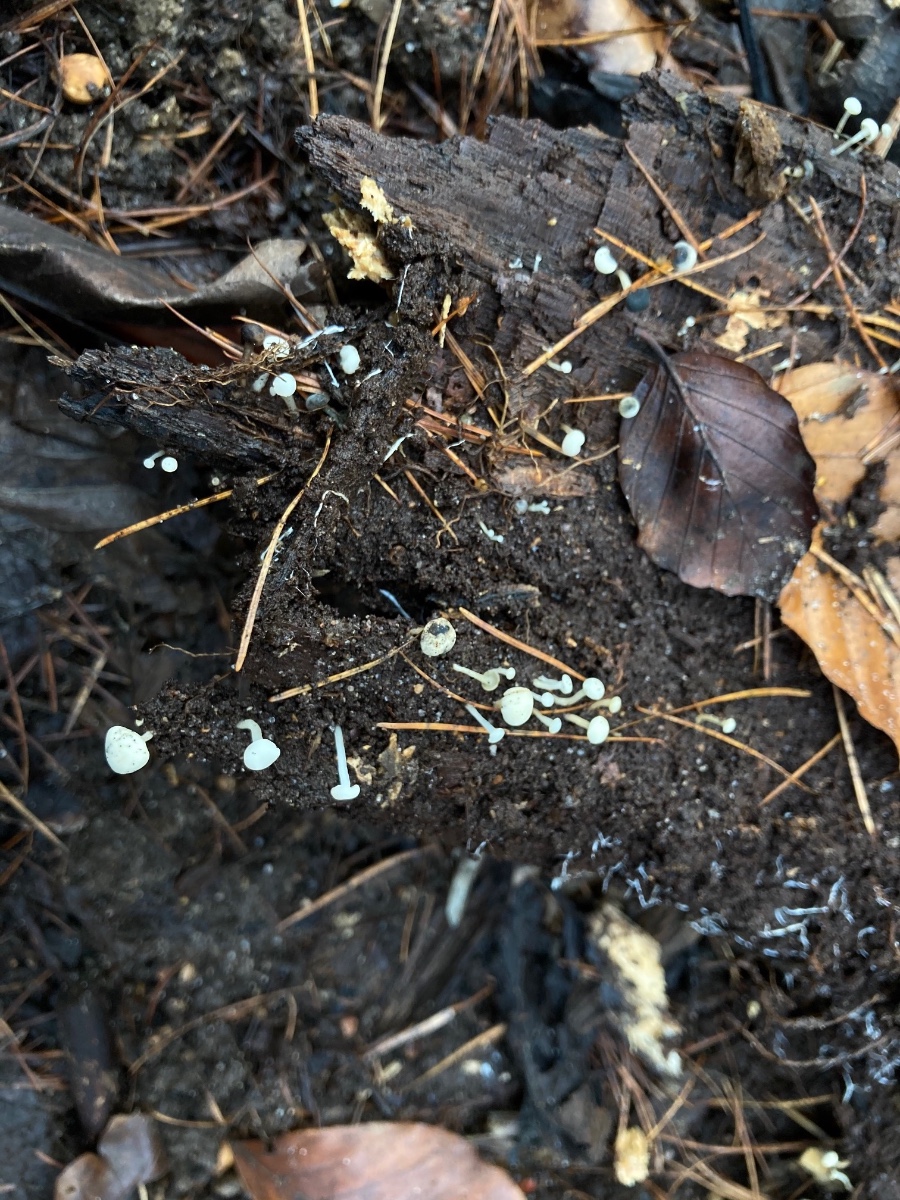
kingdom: Fungi
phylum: Ascomycota
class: Leotiomycetes
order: Helotiales
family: Tricladiaceae
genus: Cudoniella
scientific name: Cudoniella acicularis
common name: ege-dyndskive
